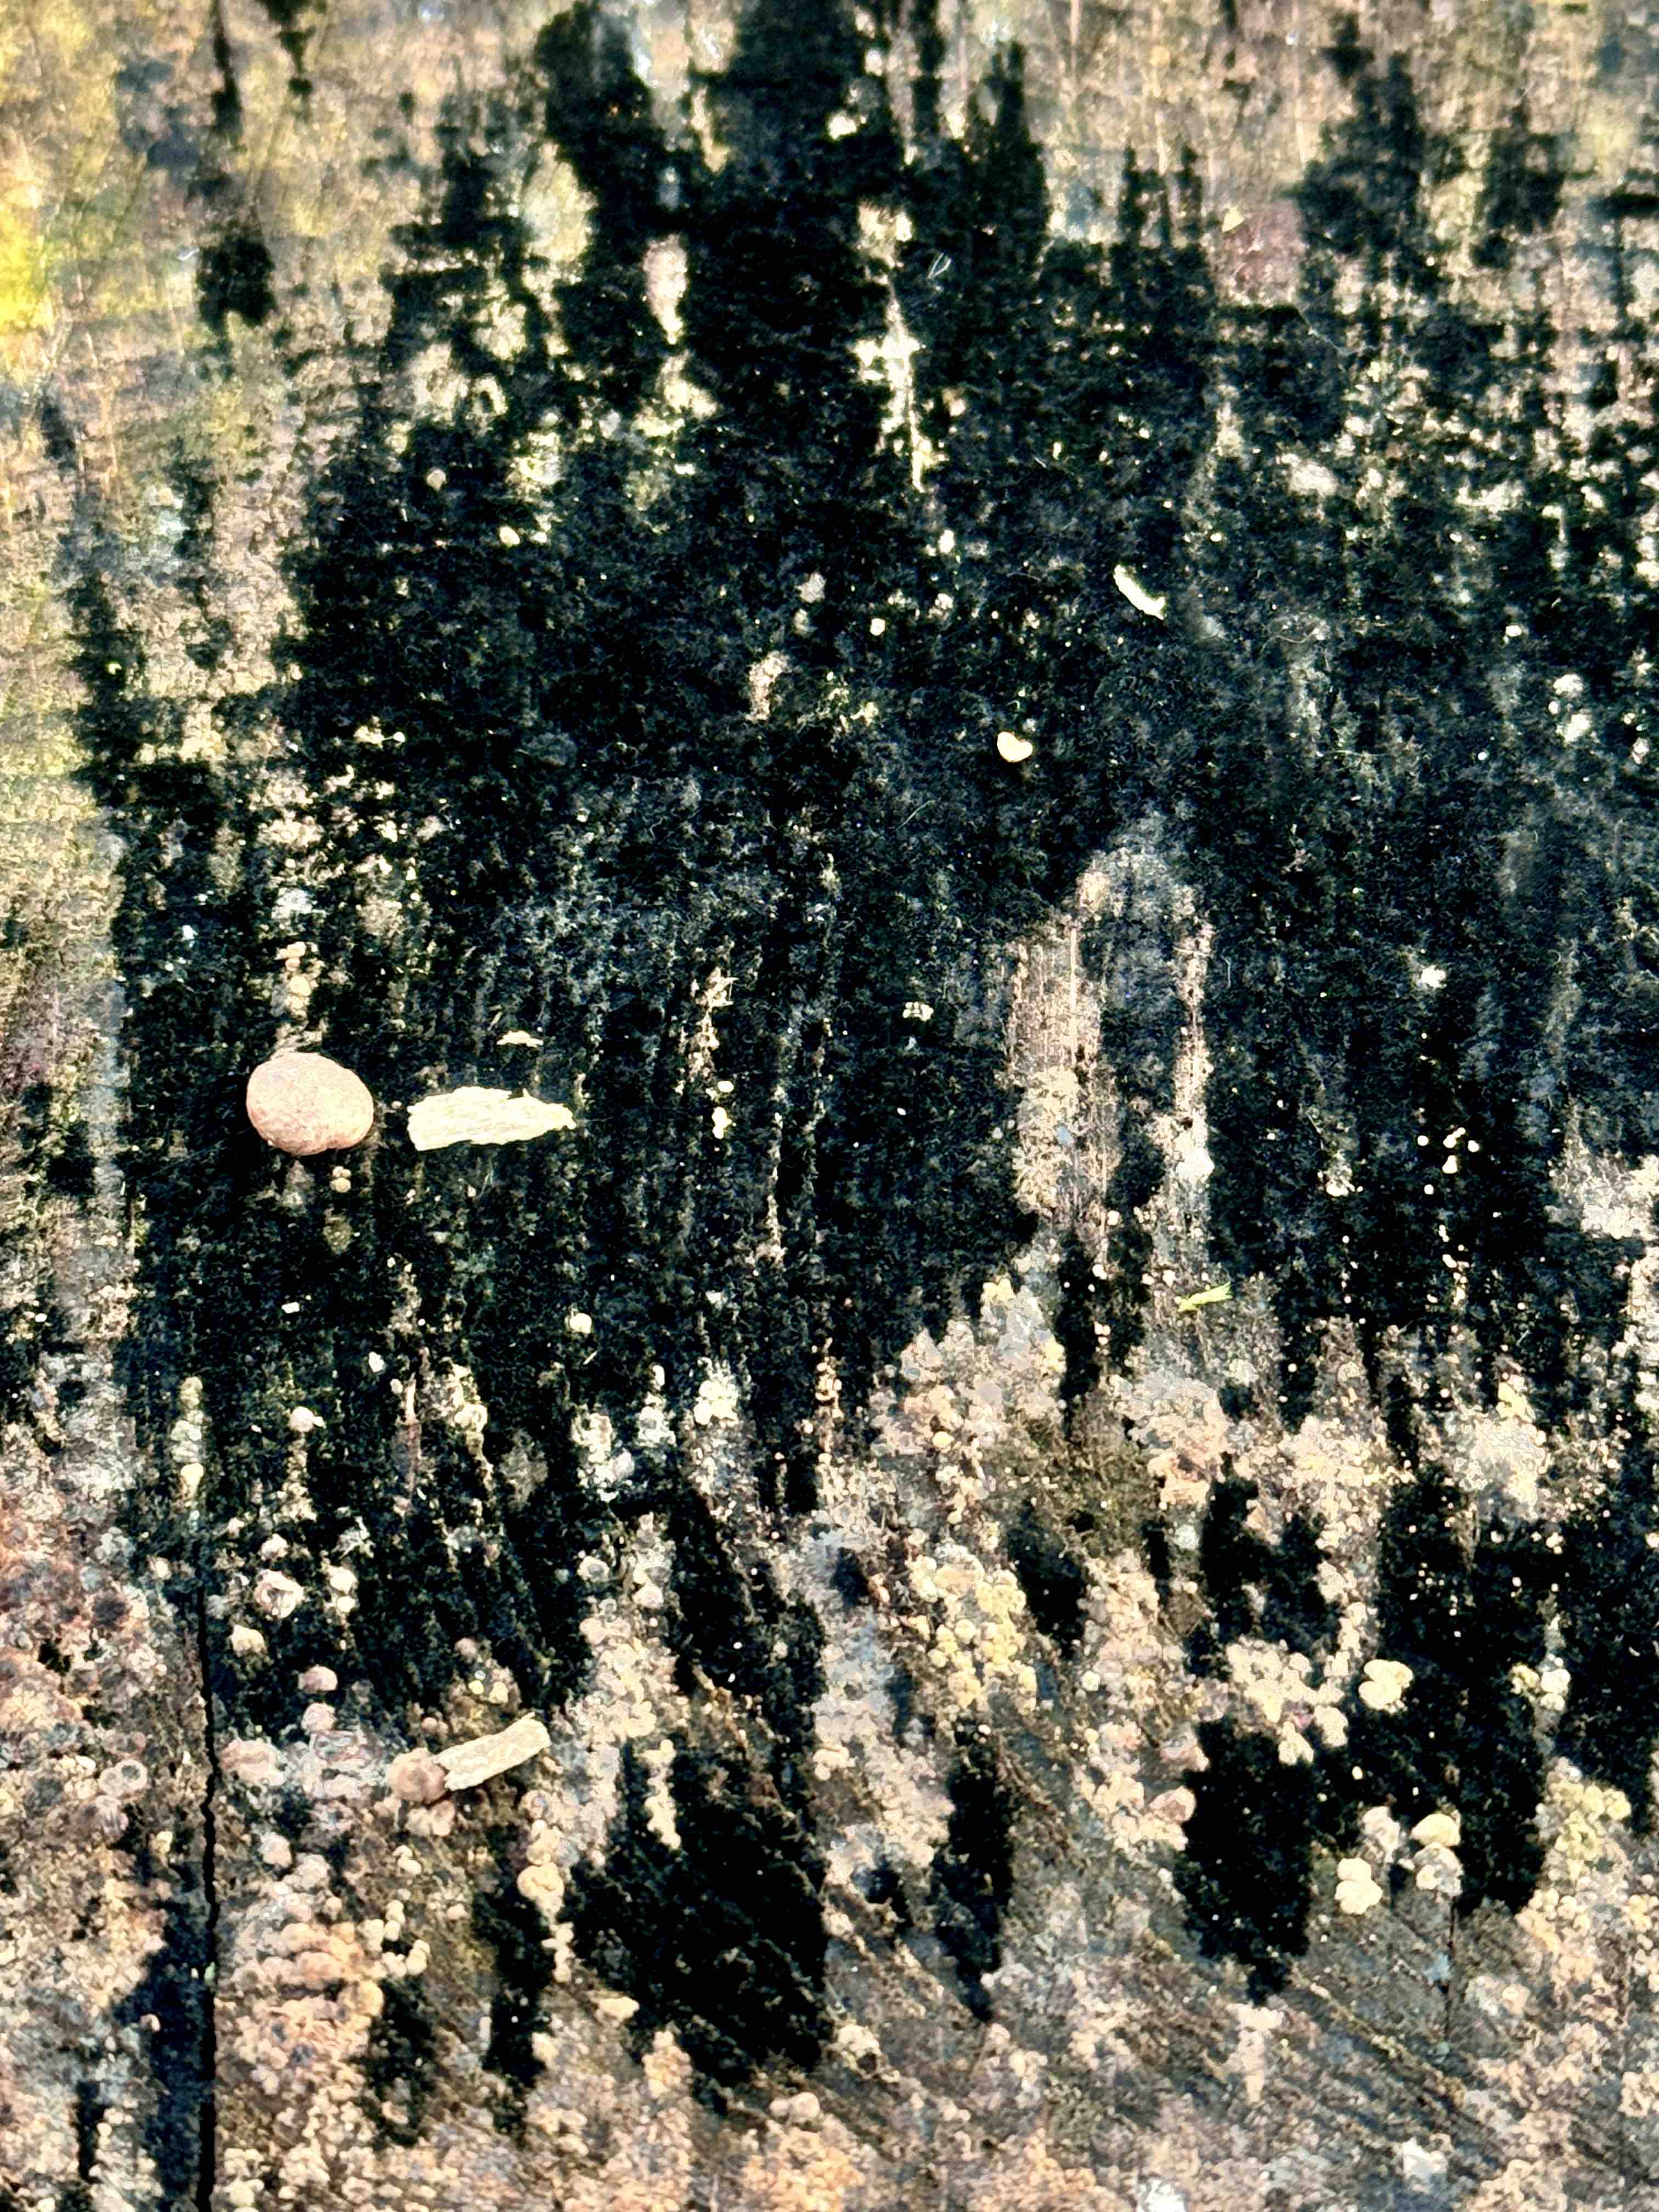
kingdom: Fungi
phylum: Ascomycota
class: Leotiomycetes
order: Helotiales
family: Helotiaceae
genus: Bispora
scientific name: Bispora pallescens
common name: måtte-snitskive
